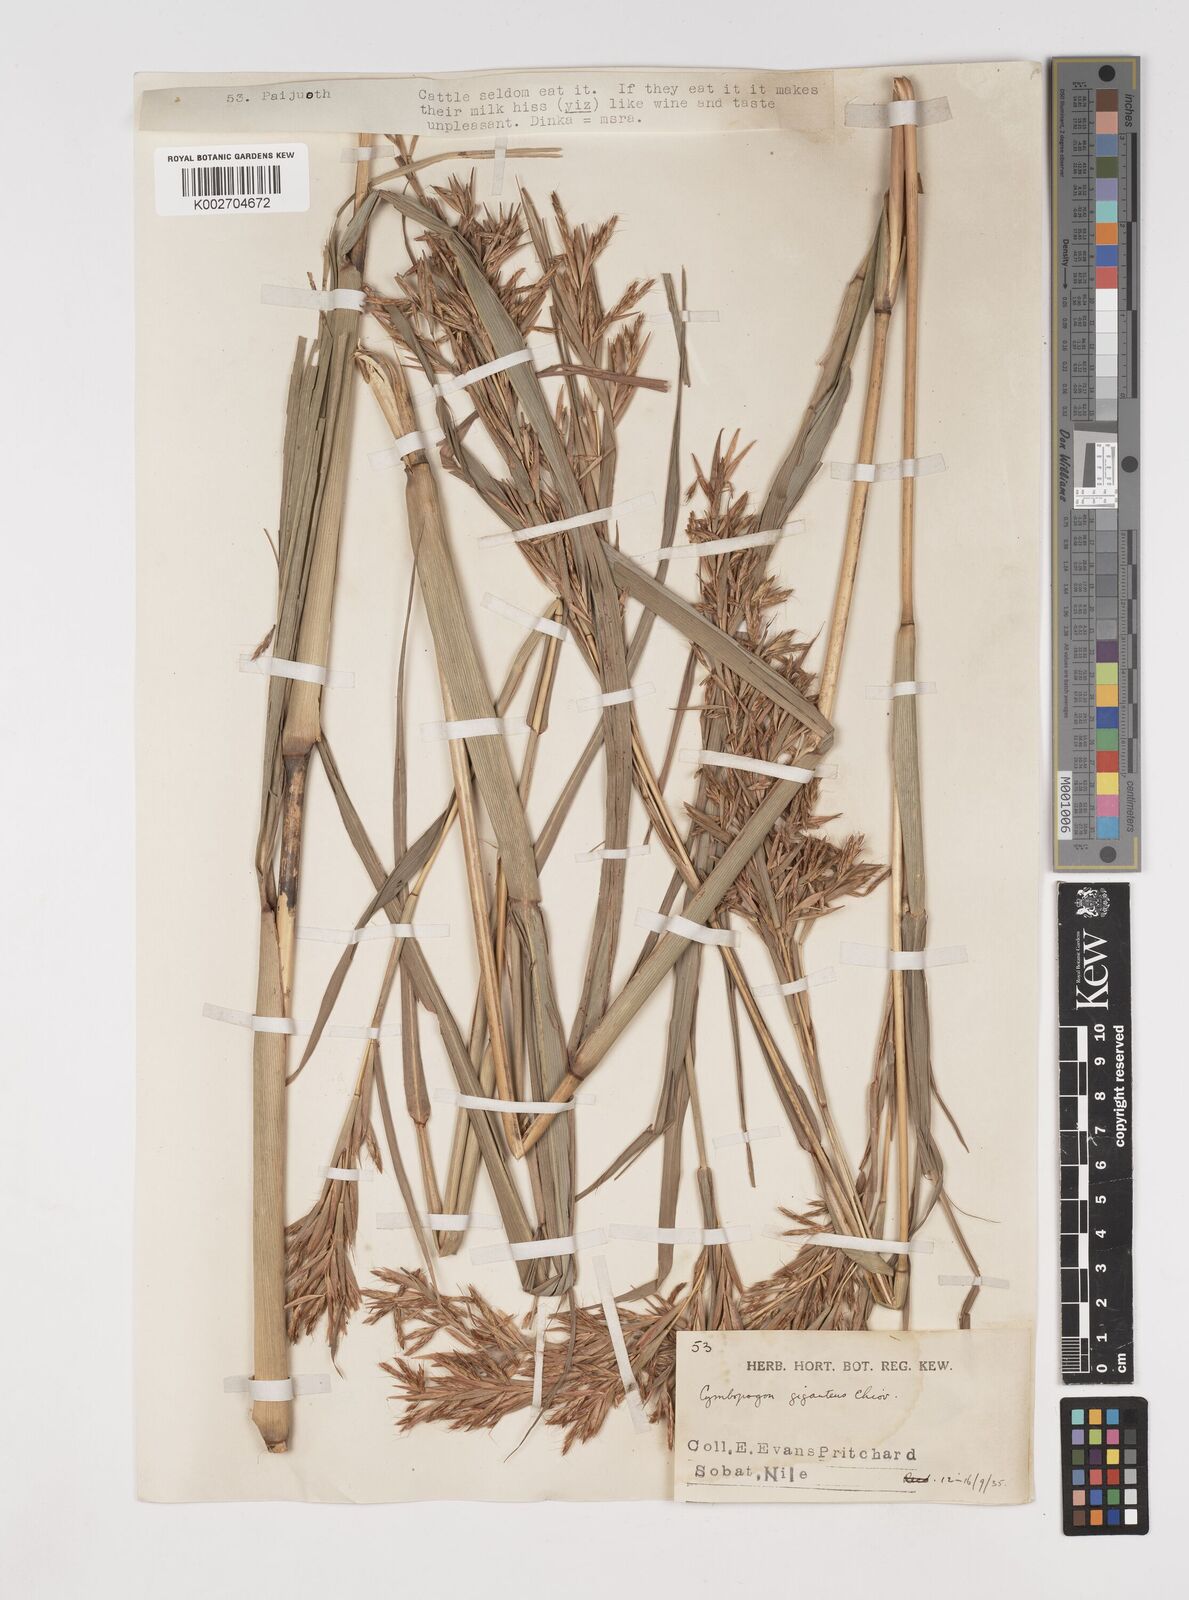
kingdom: Plantae
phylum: Tracheophyta
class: Liliopsida
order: Poales
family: Poaceae
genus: Cymbopogon
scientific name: Cymbopogon giganteus
